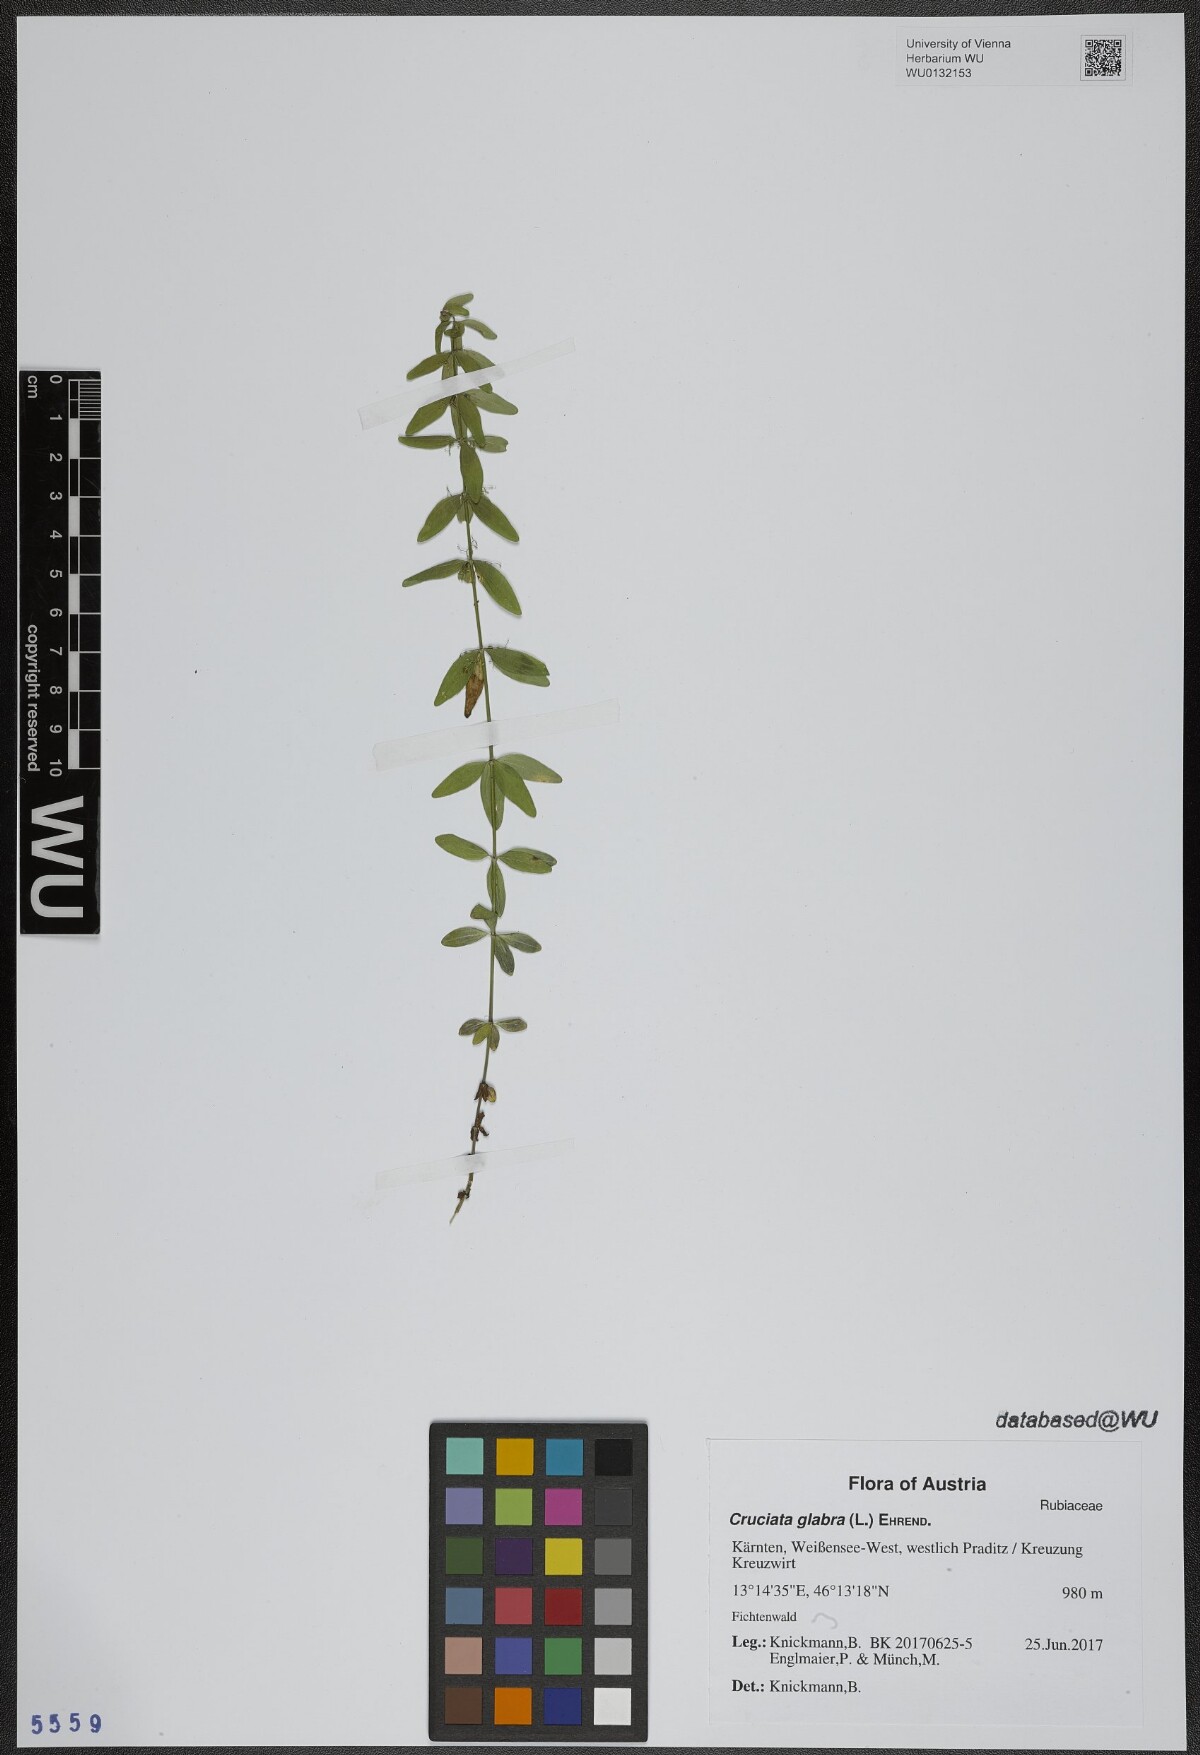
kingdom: Plantae
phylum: Tracheophyta
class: Magnoliopsida
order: Gentianales
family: Rubiaceae
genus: Cruciata
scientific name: Cruciata glabra
